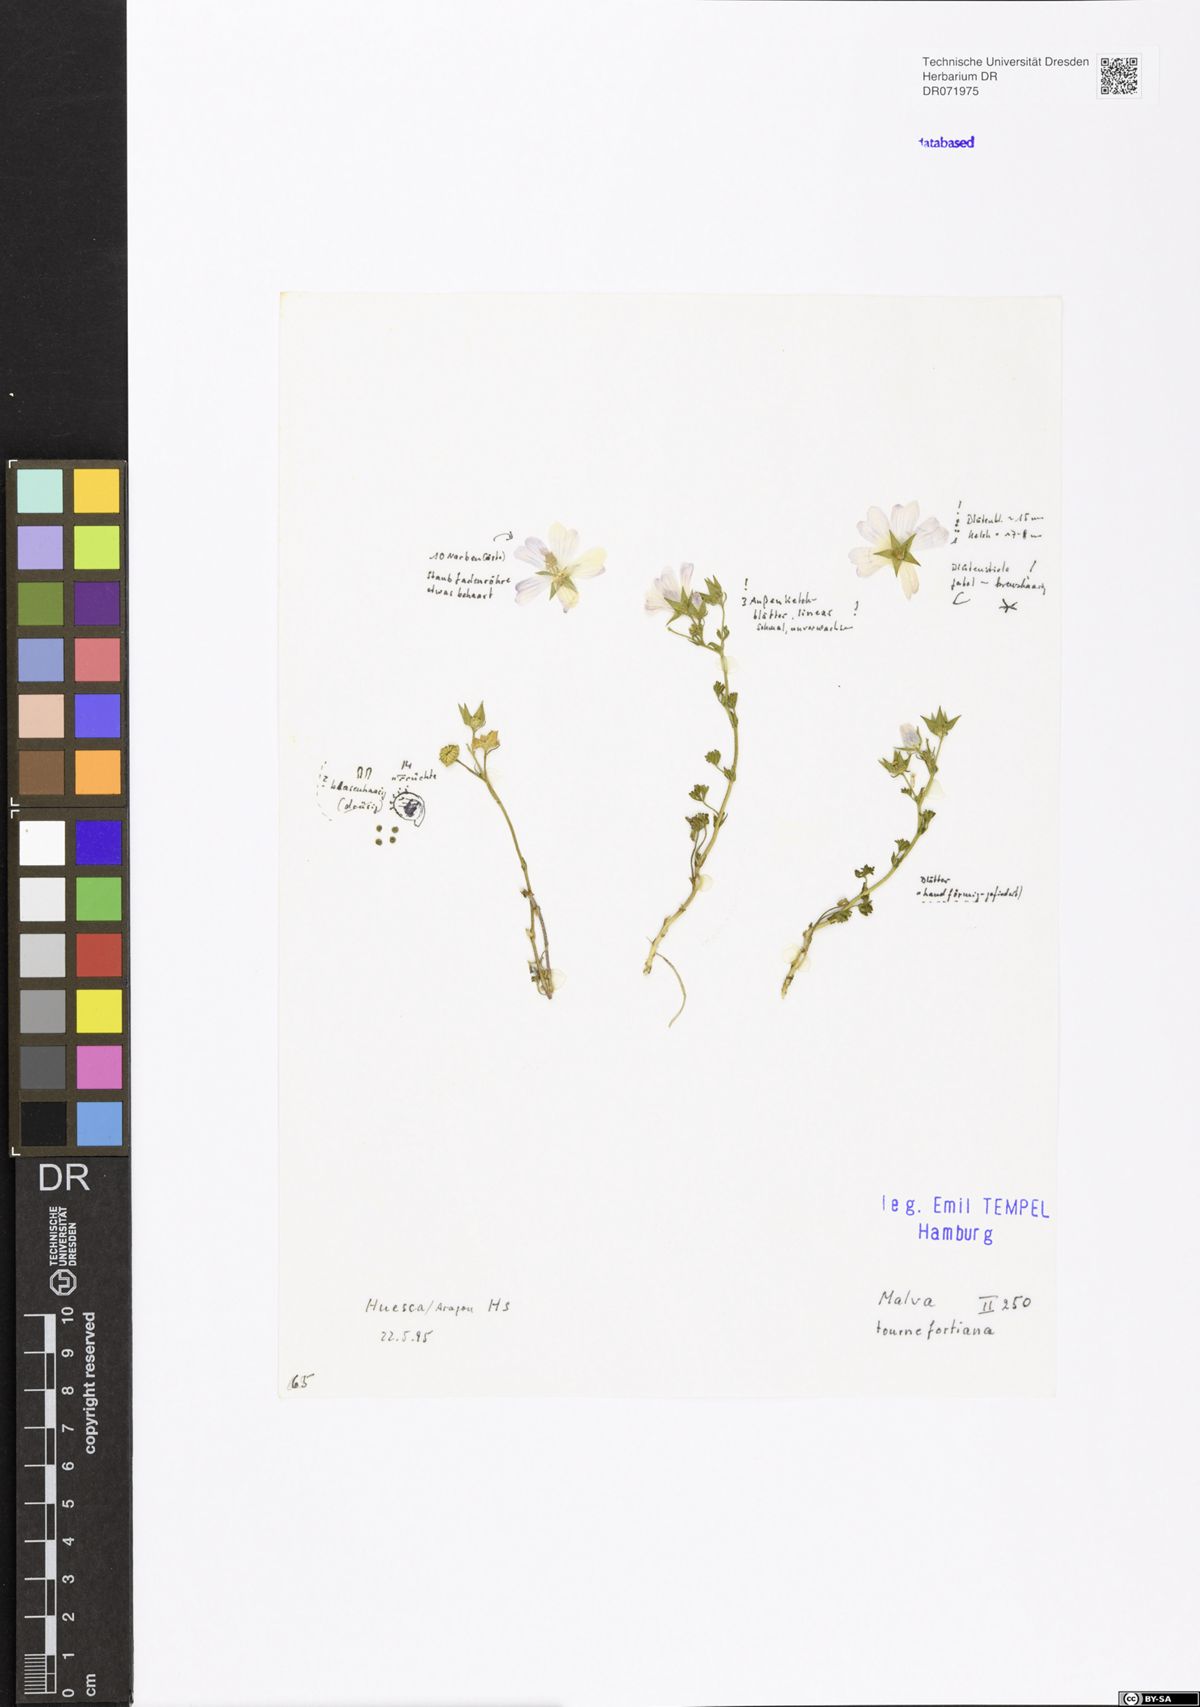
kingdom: Plantae
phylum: Tracheophyta
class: Magnoliopsida
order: Malvales
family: Malvaceae
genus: Malva
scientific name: Malva tournefortiana
